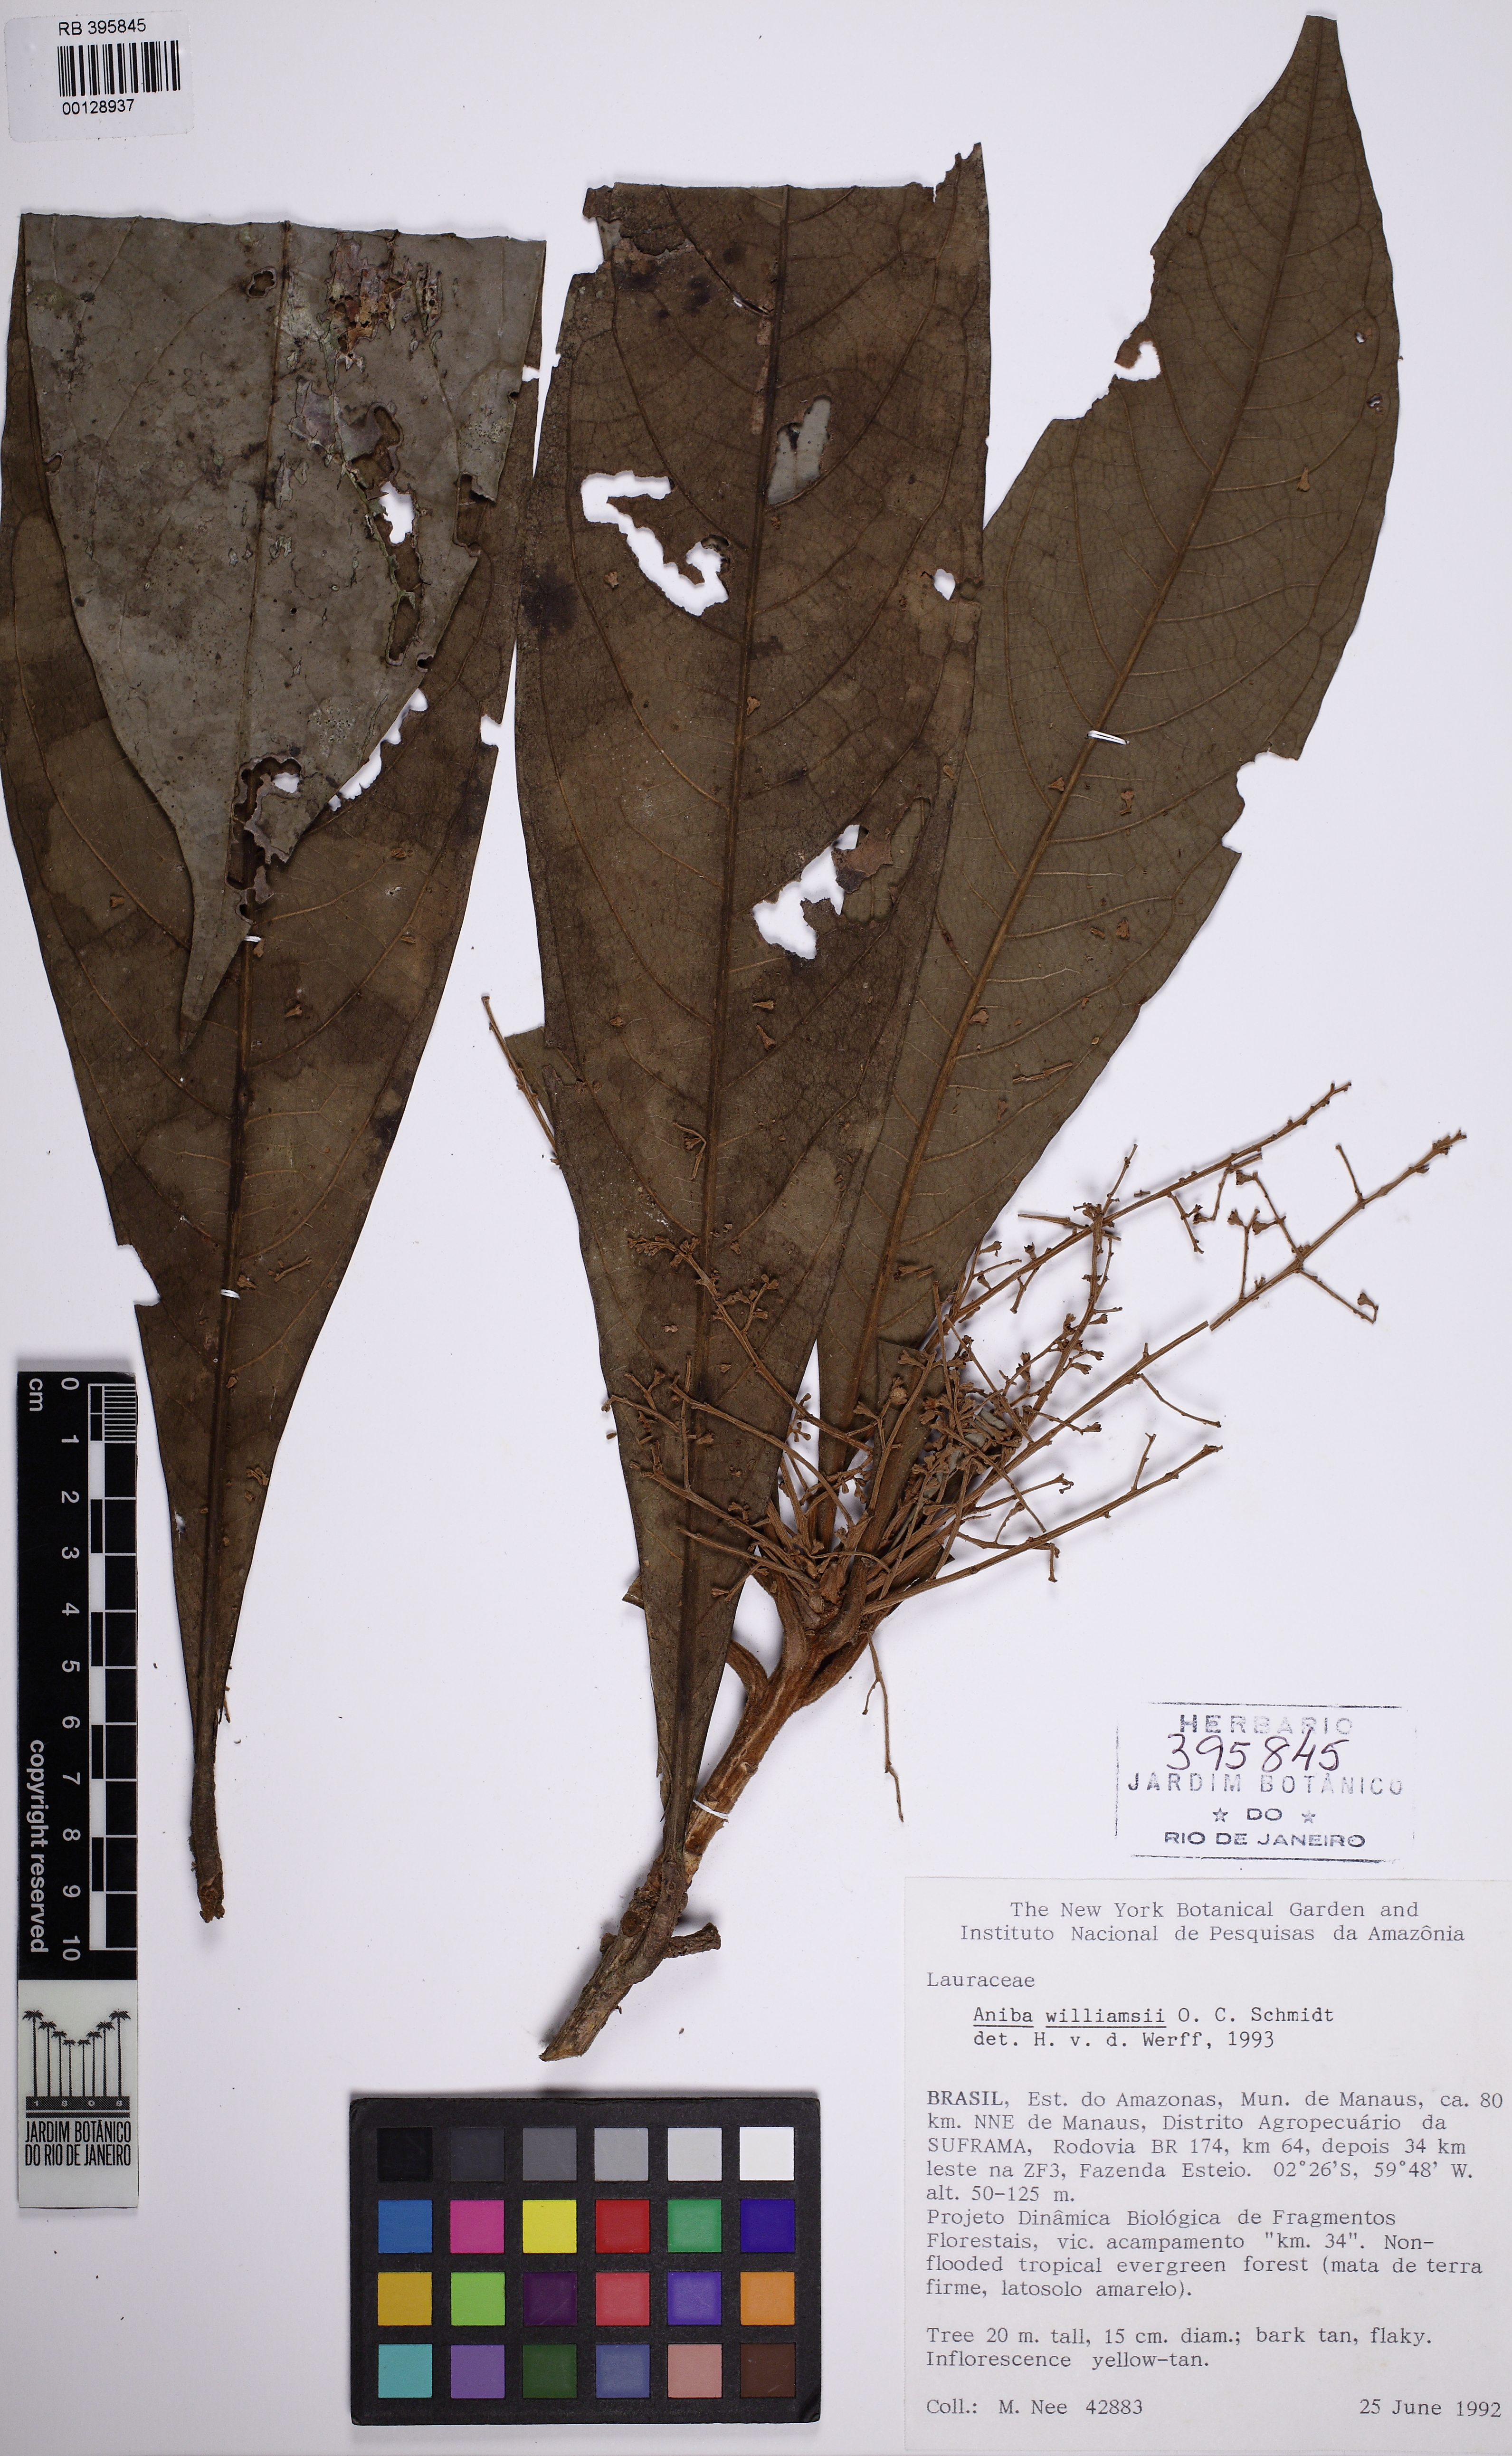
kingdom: Plantae
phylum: Tracheophyta
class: Magnoliopsida
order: Laurales
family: Lauraceae
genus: Aniba
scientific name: Aniba williamsii
